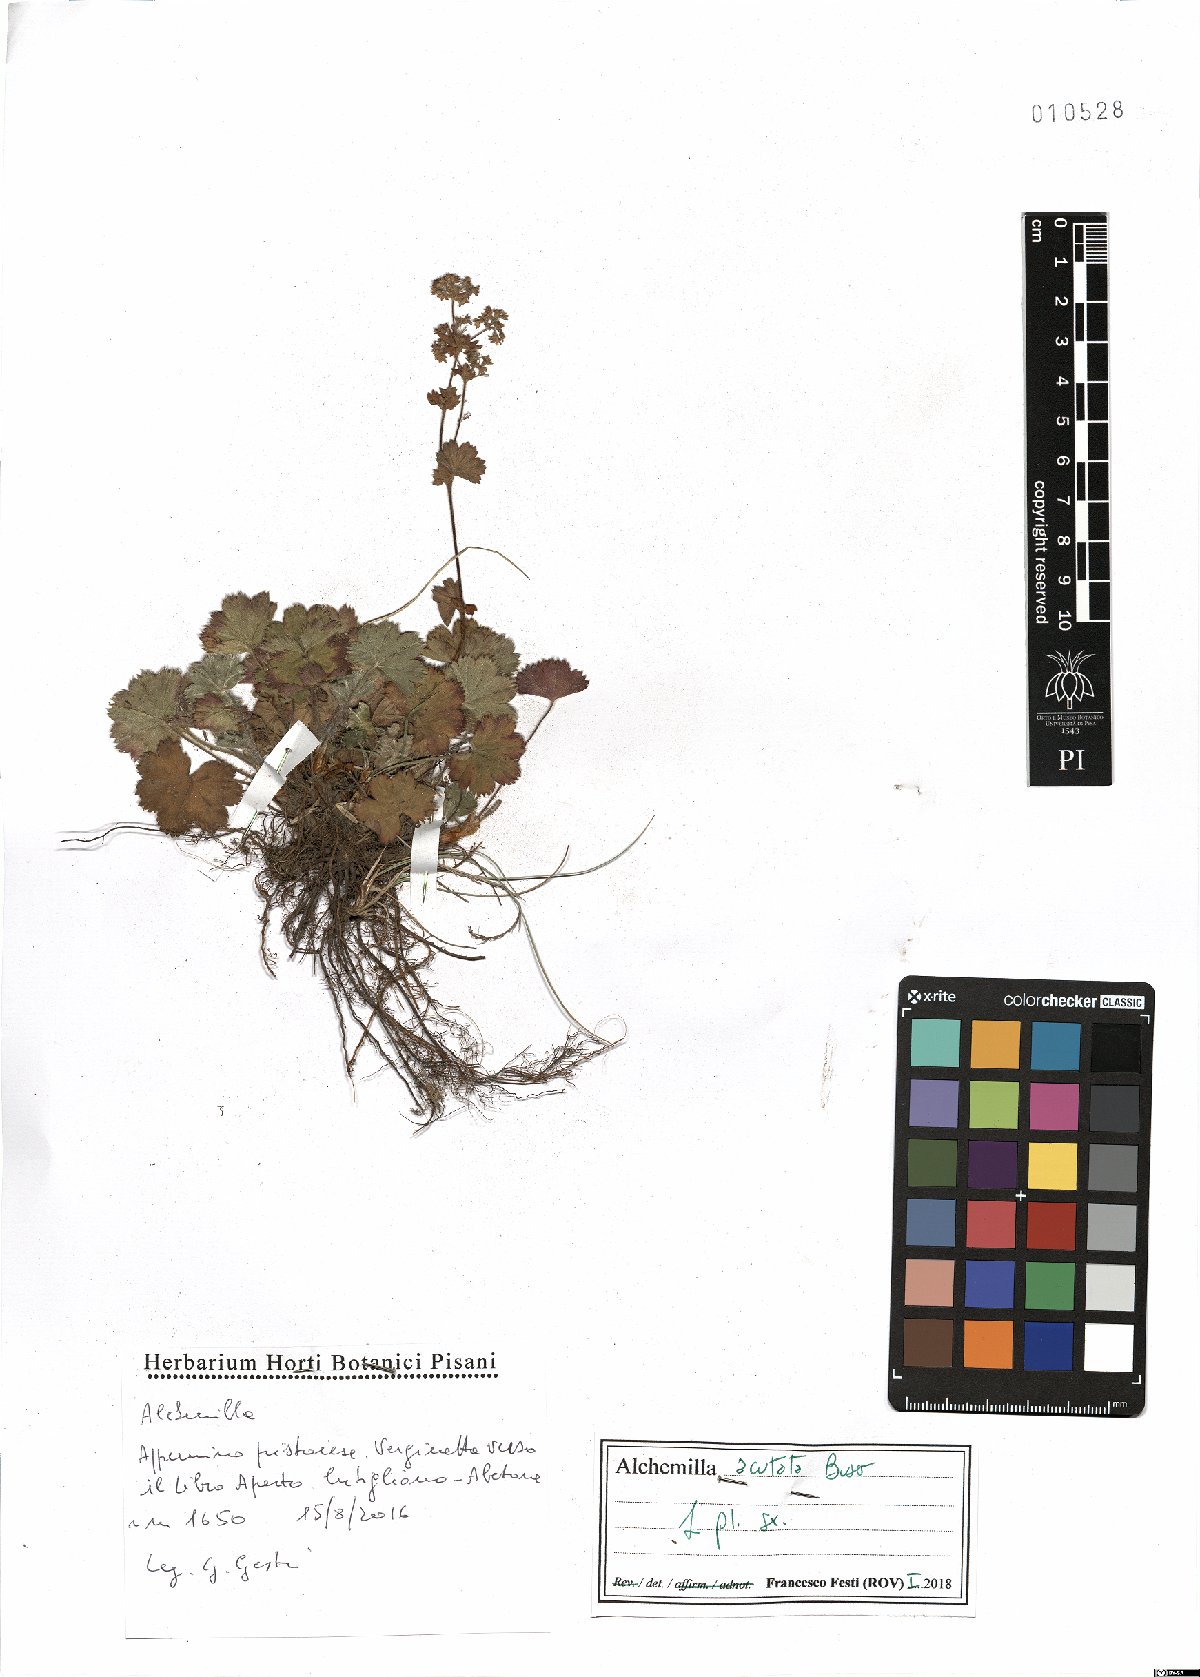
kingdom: Plantae
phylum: Tracheophyta
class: Magnoliopsida
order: Rosales
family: Rosaceae
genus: Alchemilla
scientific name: Alchemilla acutata
